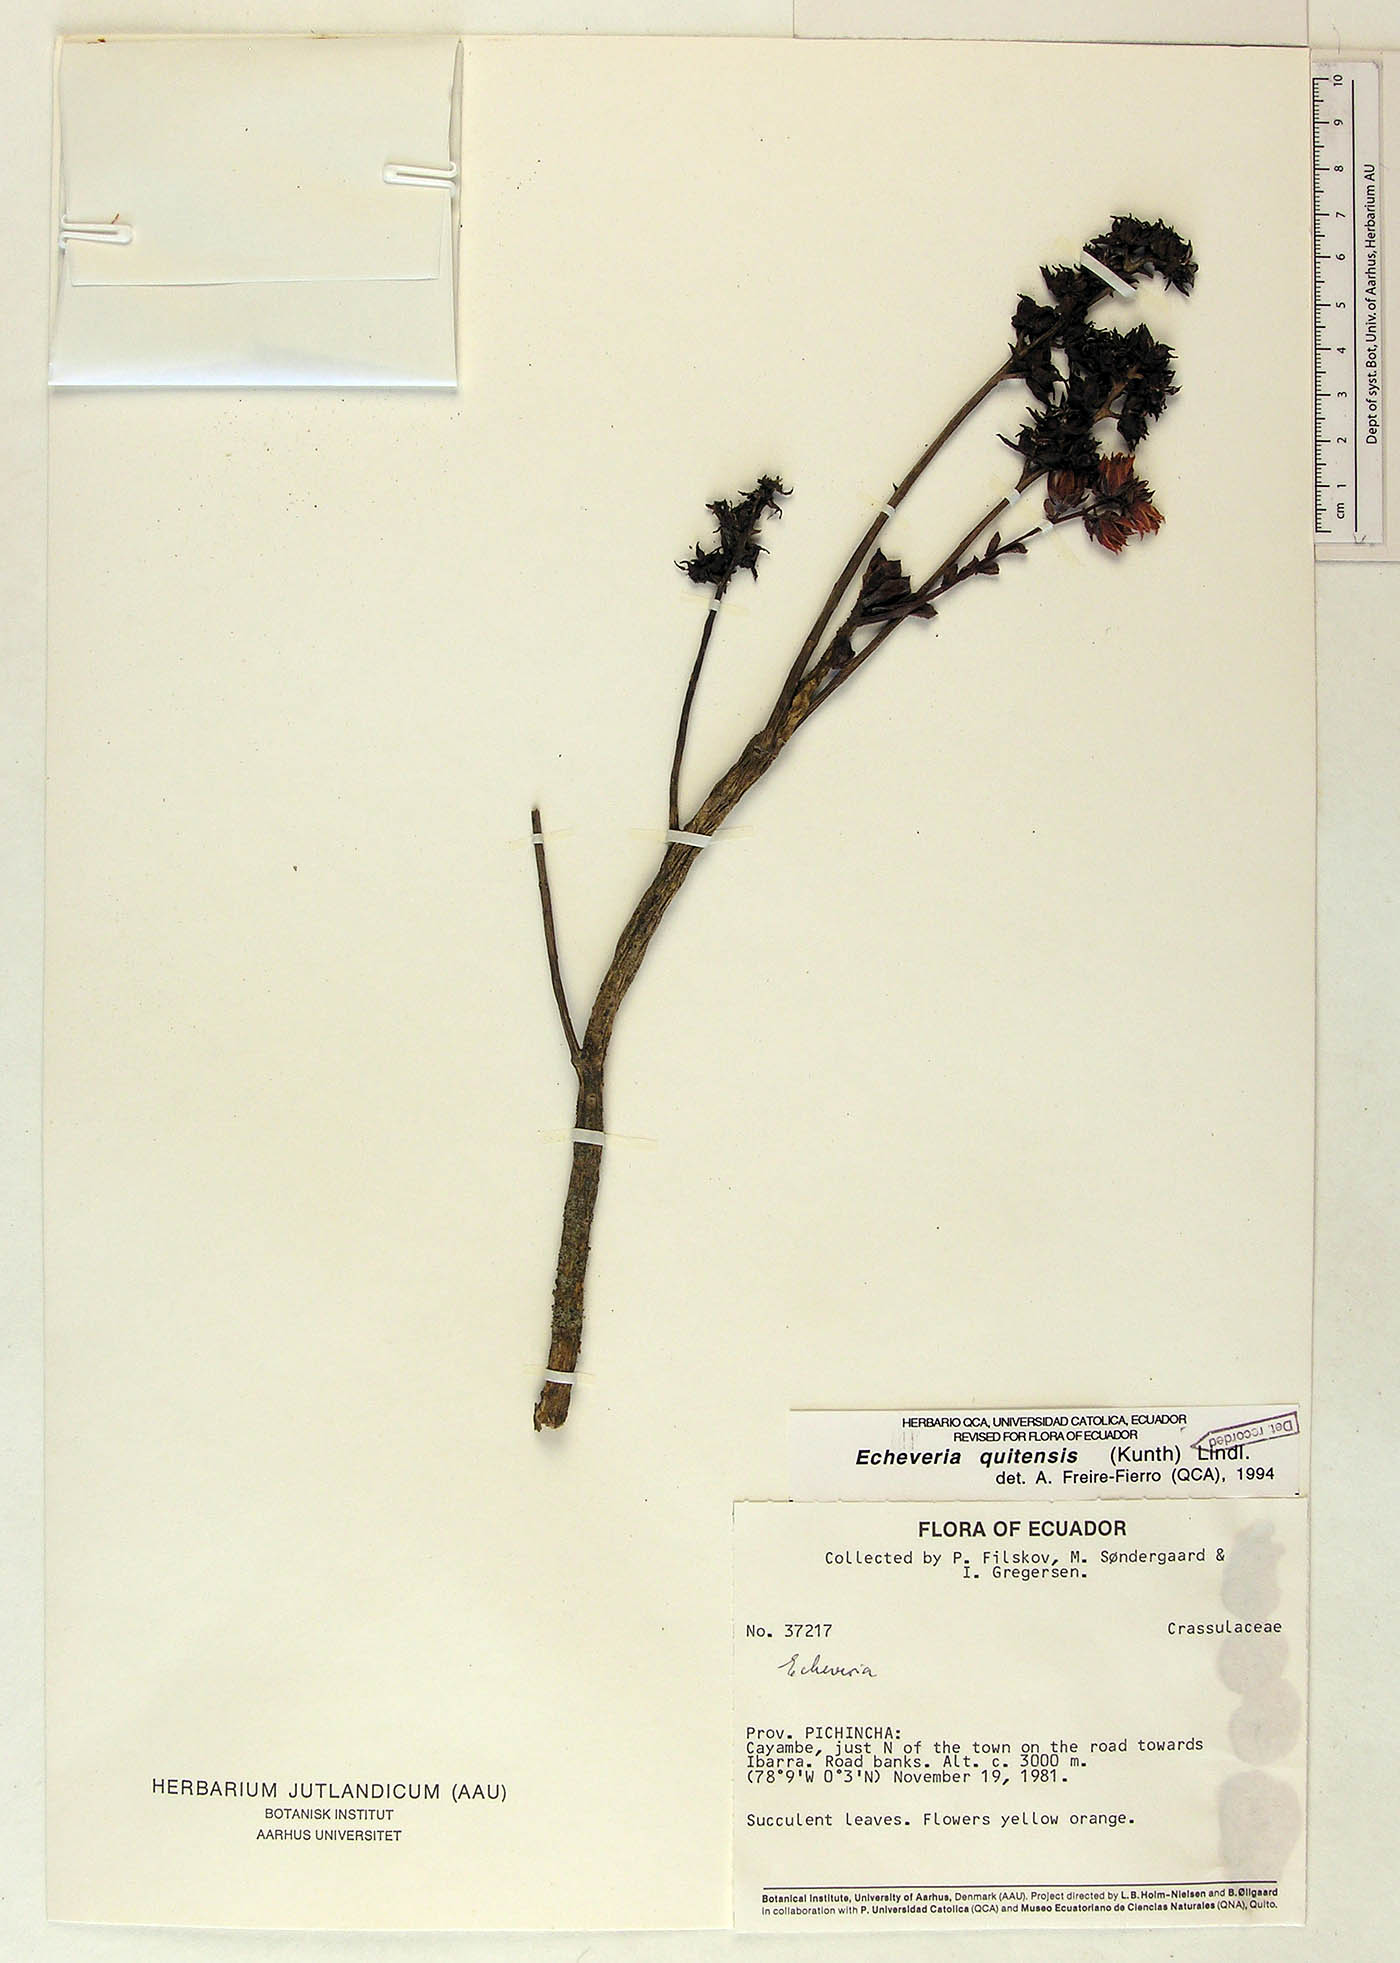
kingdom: Plantae
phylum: Tracheophyta
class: Magnoliopsida
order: Saxifragales
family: Crassulaceae
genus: Echeveria
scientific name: Echeveria quitensis
